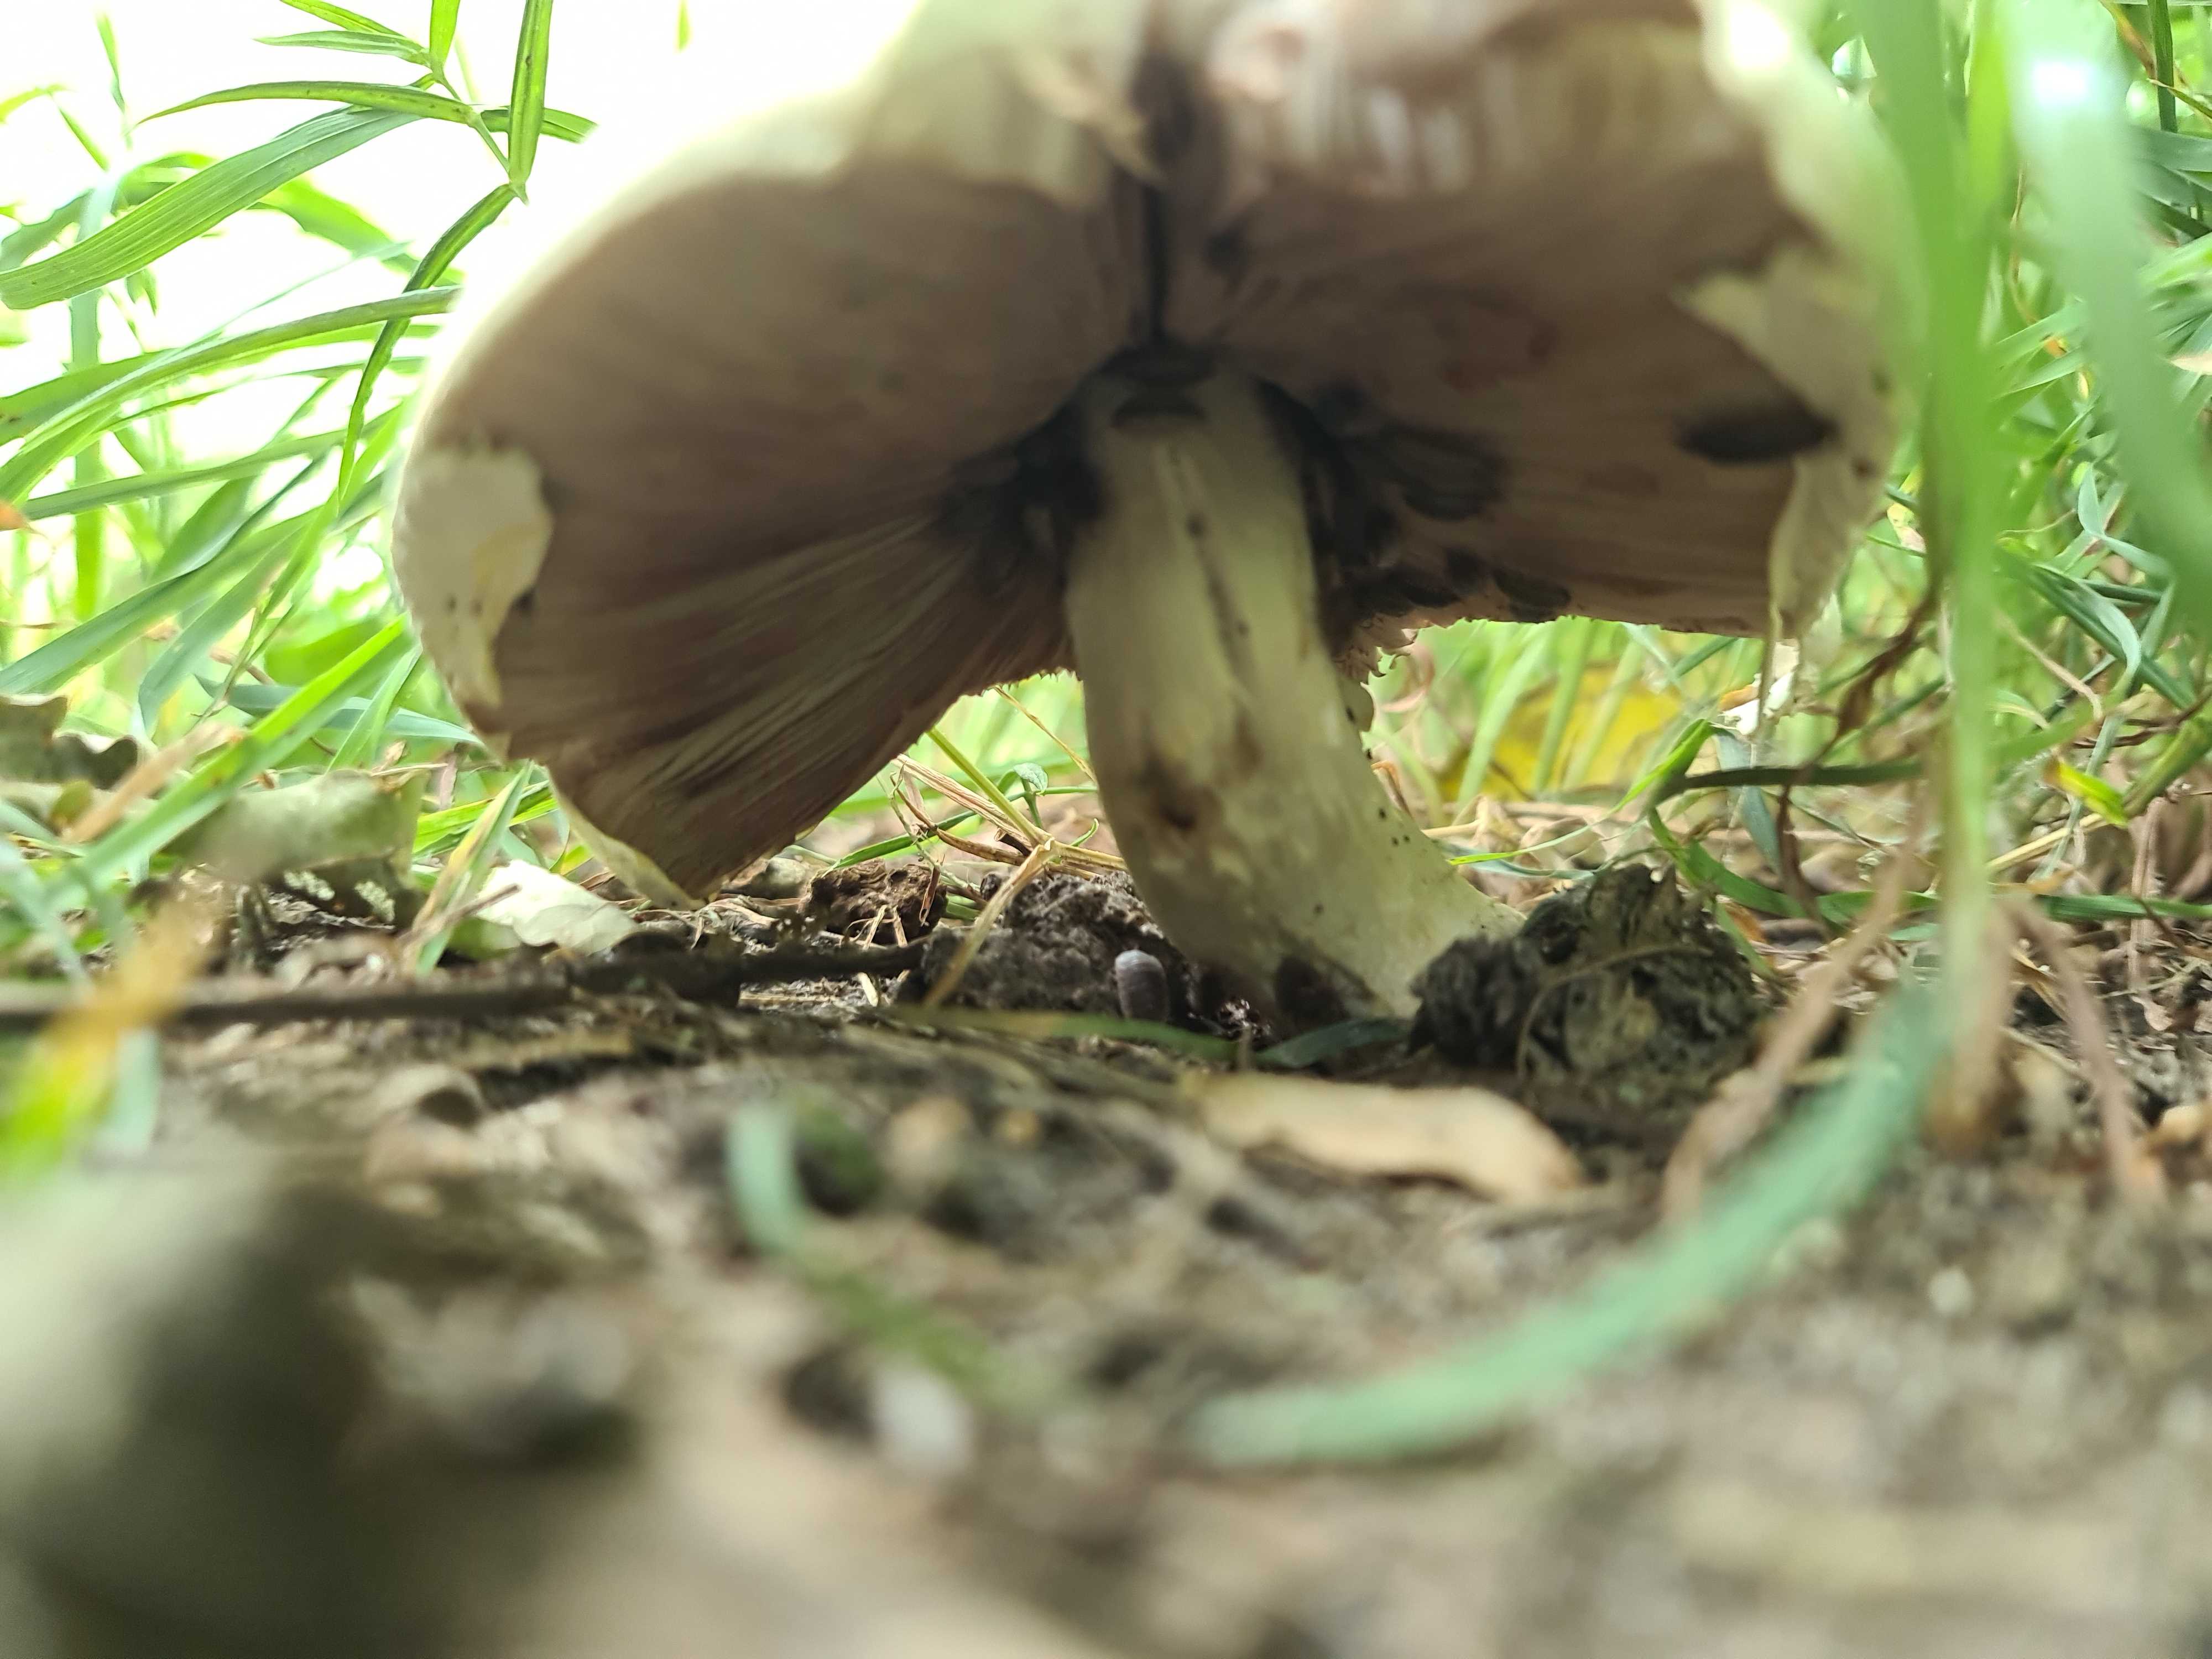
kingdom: Fungi
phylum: Basidiomycota
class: Agaricomycetes
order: Agaricales
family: Agaricaceae
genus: Agaricus
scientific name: Agaricus
